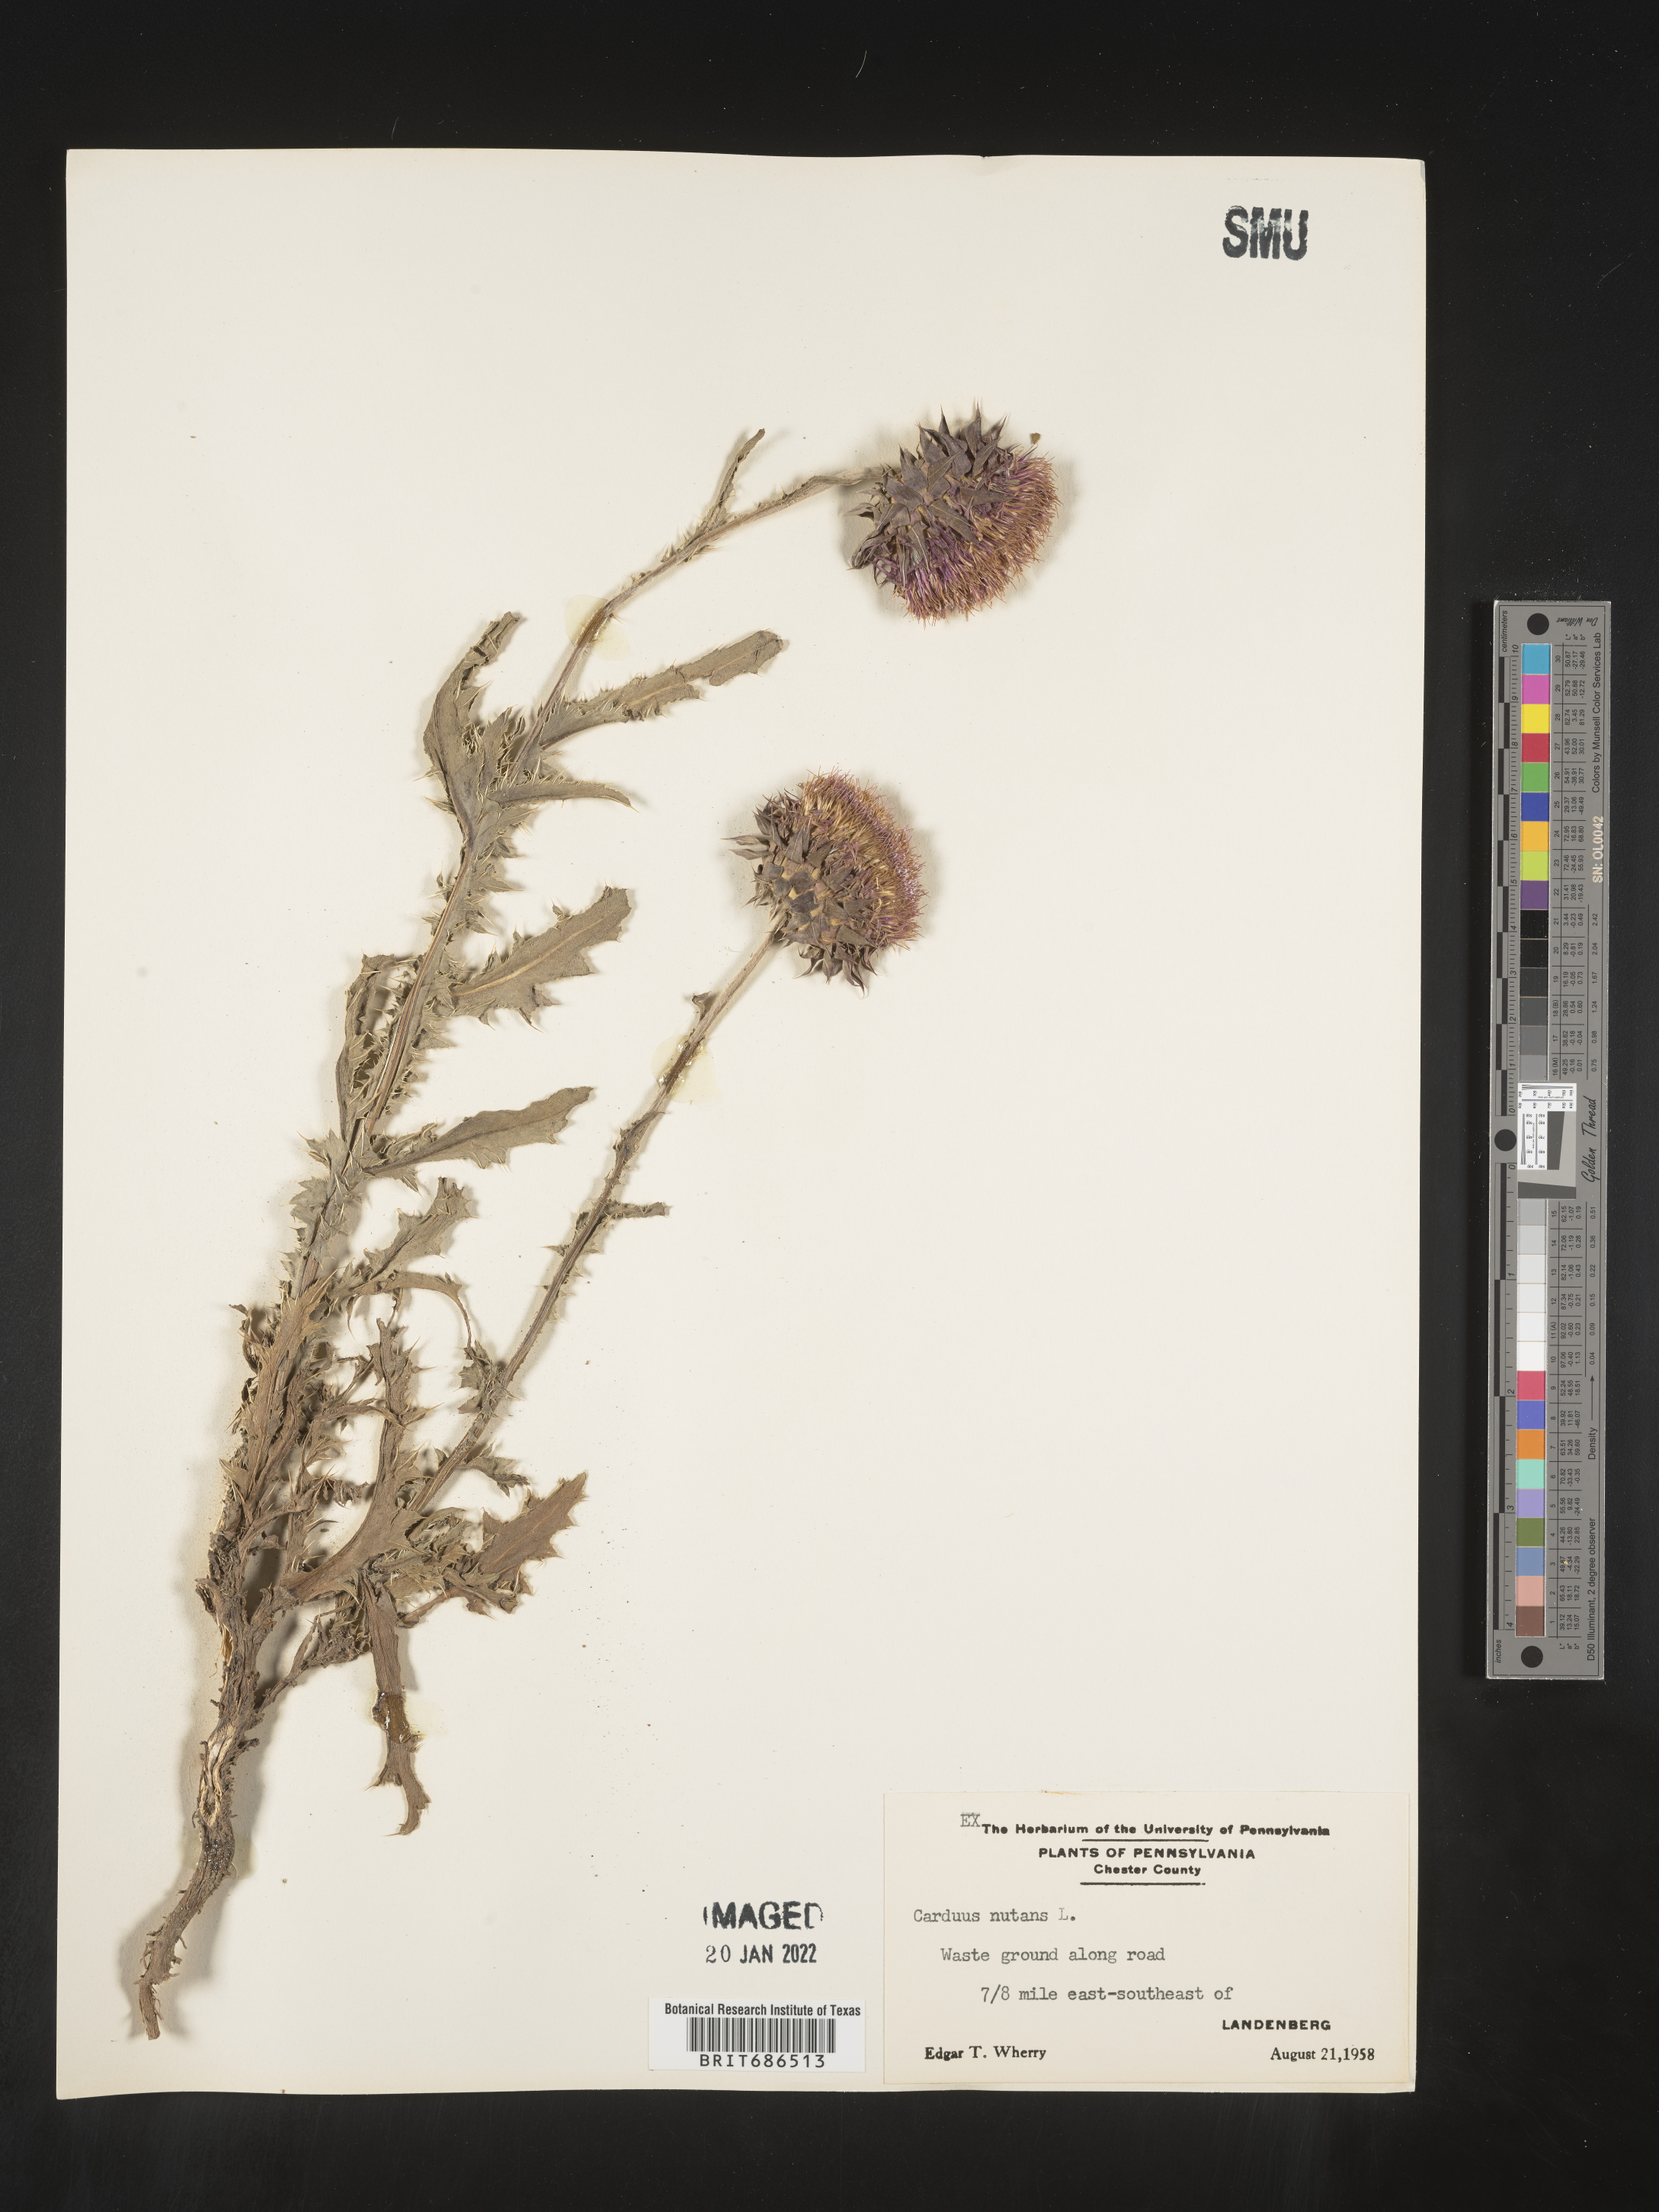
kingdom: Plantae
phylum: Tracheophyta
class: Magnoliopsida
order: Asterales
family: Asteraceae
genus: Carduus
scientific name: Carduus nutans
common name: Musk thistle
